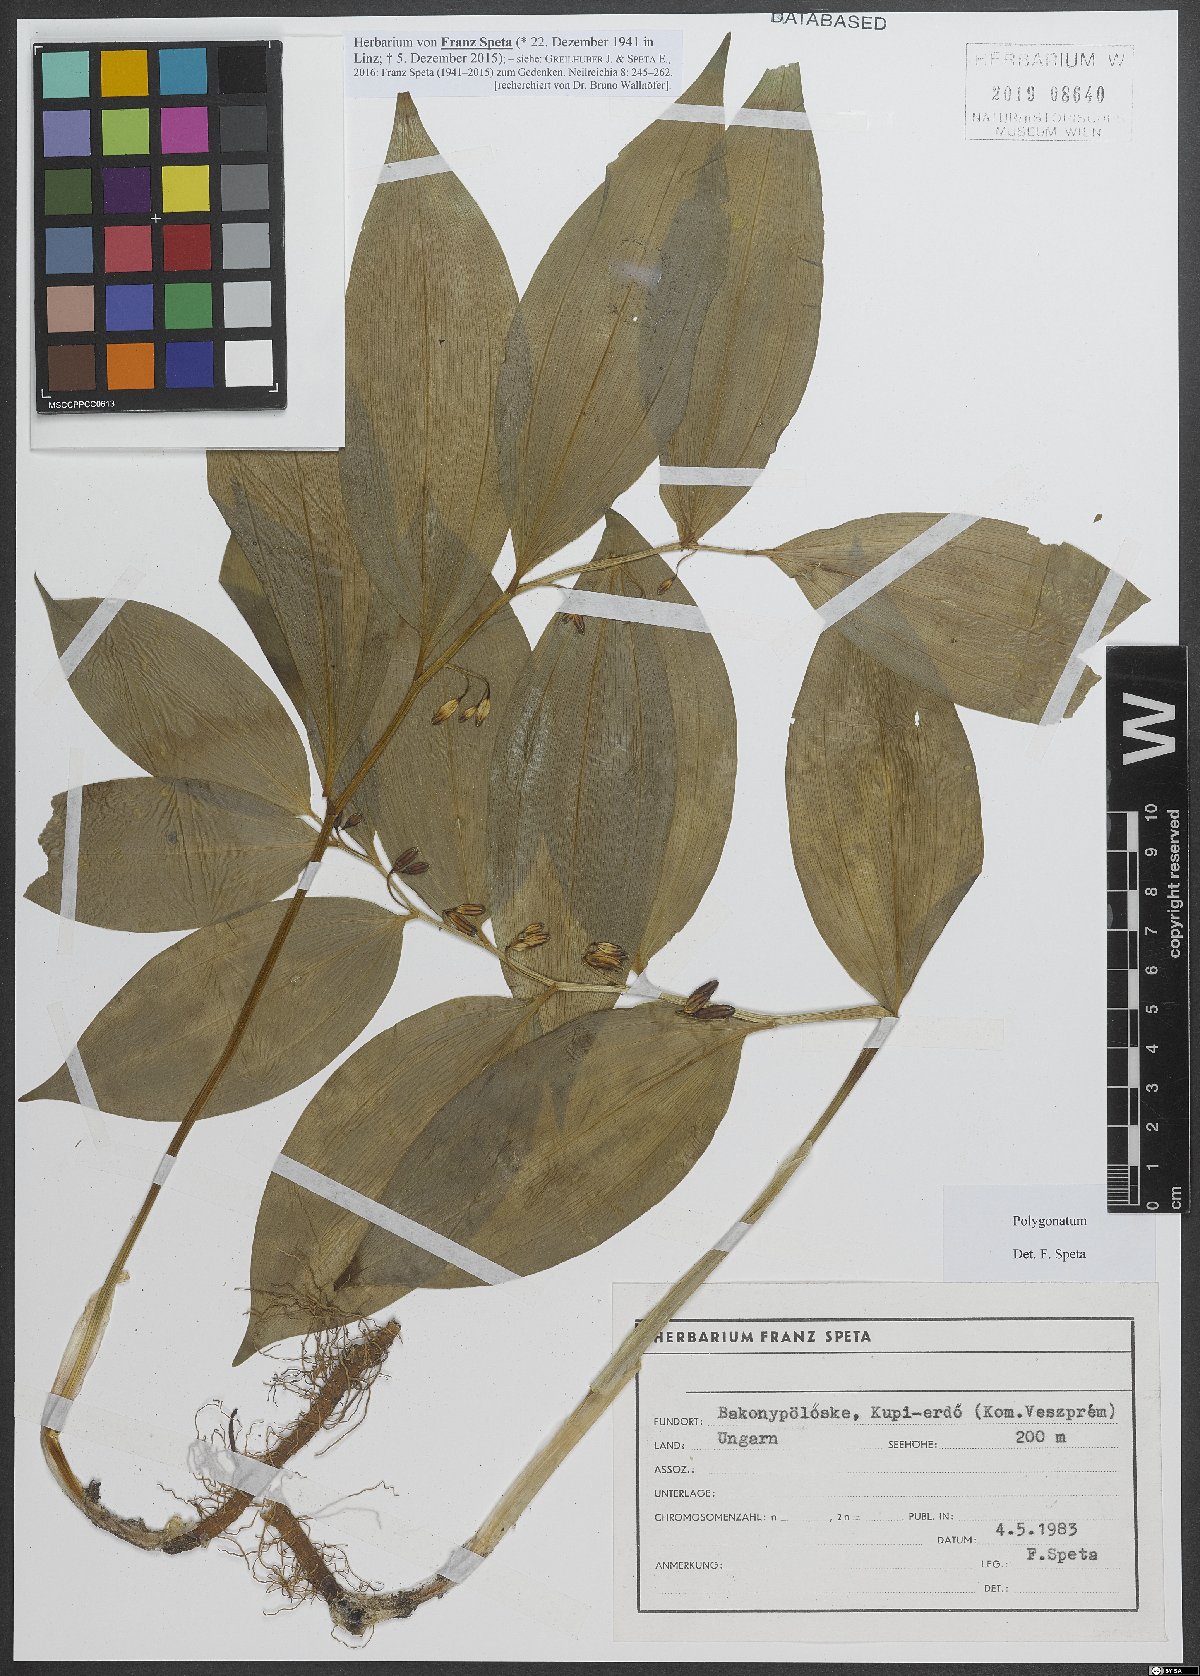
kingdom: Plantae
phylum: Tracheophyta
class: Liliopsida
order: Asparagales
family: Asparagaceae
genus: Polygonatum
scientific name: Polygonatum
